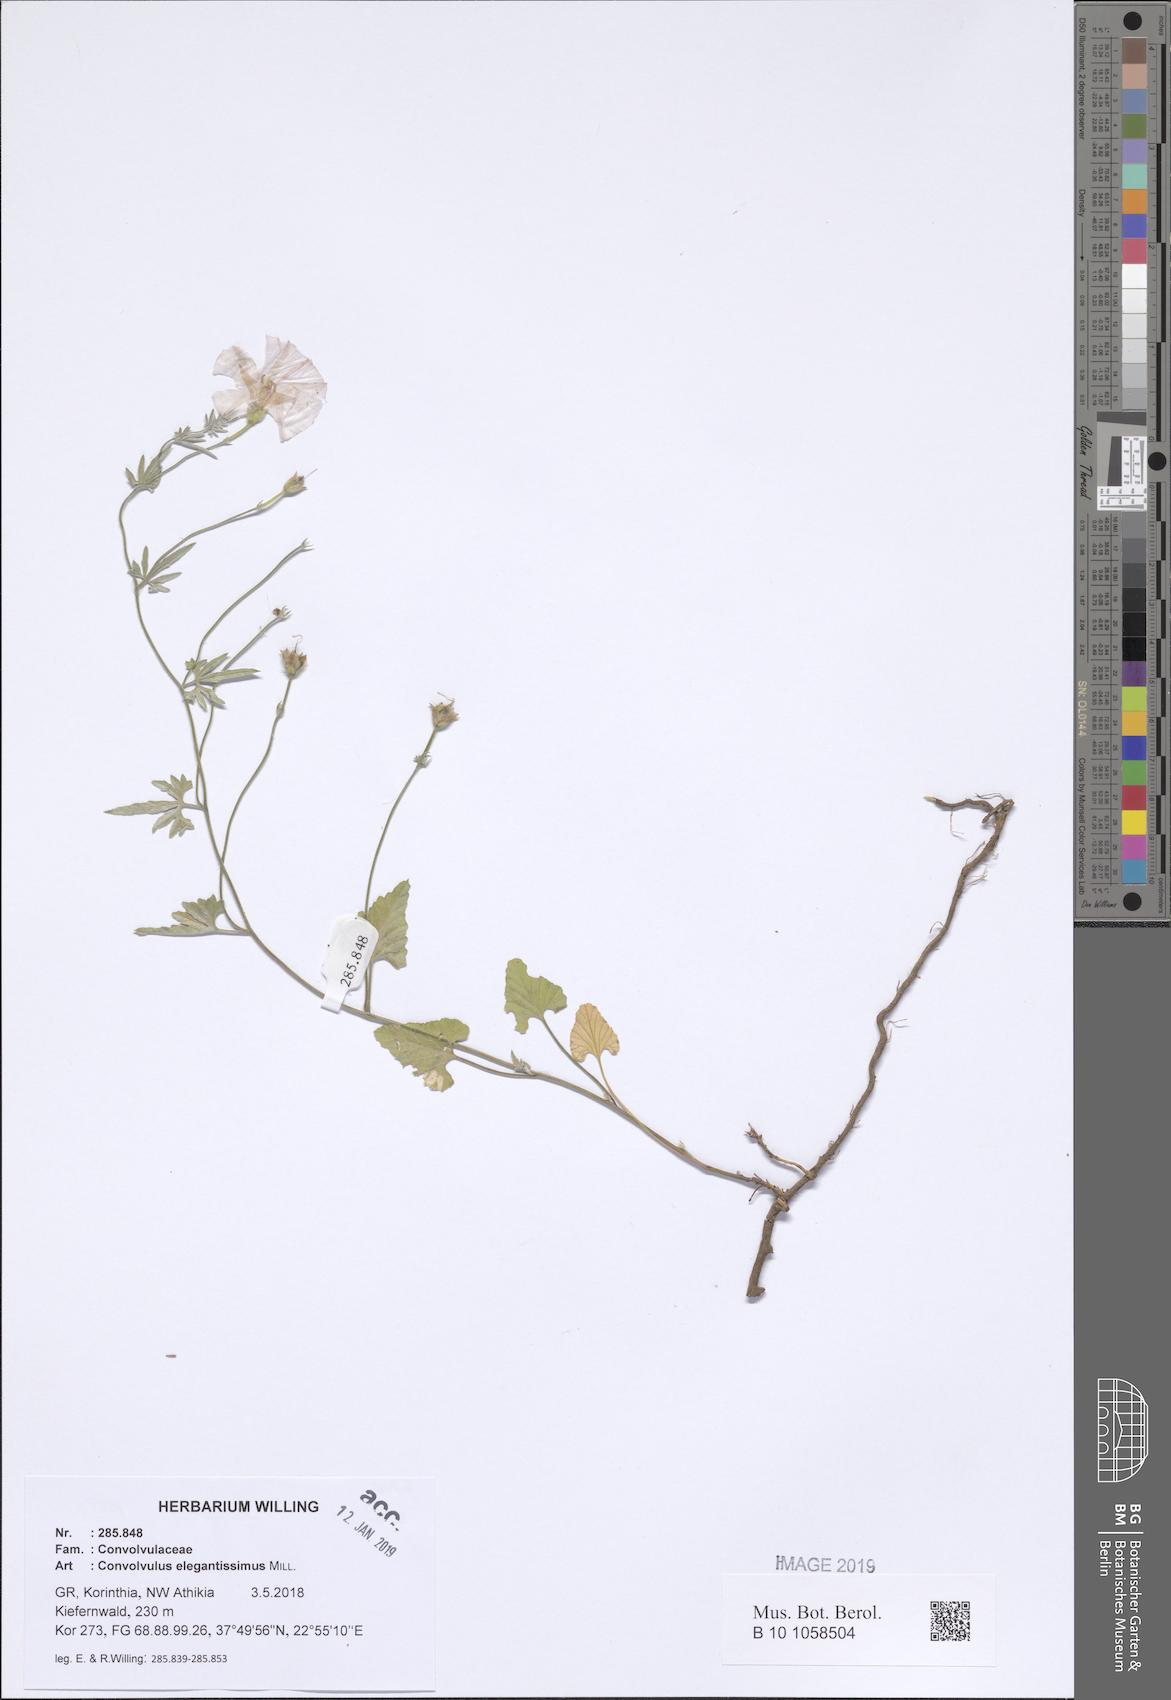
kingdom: Plantae
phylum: Tracheophyta
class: Magnoliopsida
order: Solanales
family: Convolvulaceae
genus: Convolvulus
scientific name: Convolvulus elegantissimus
